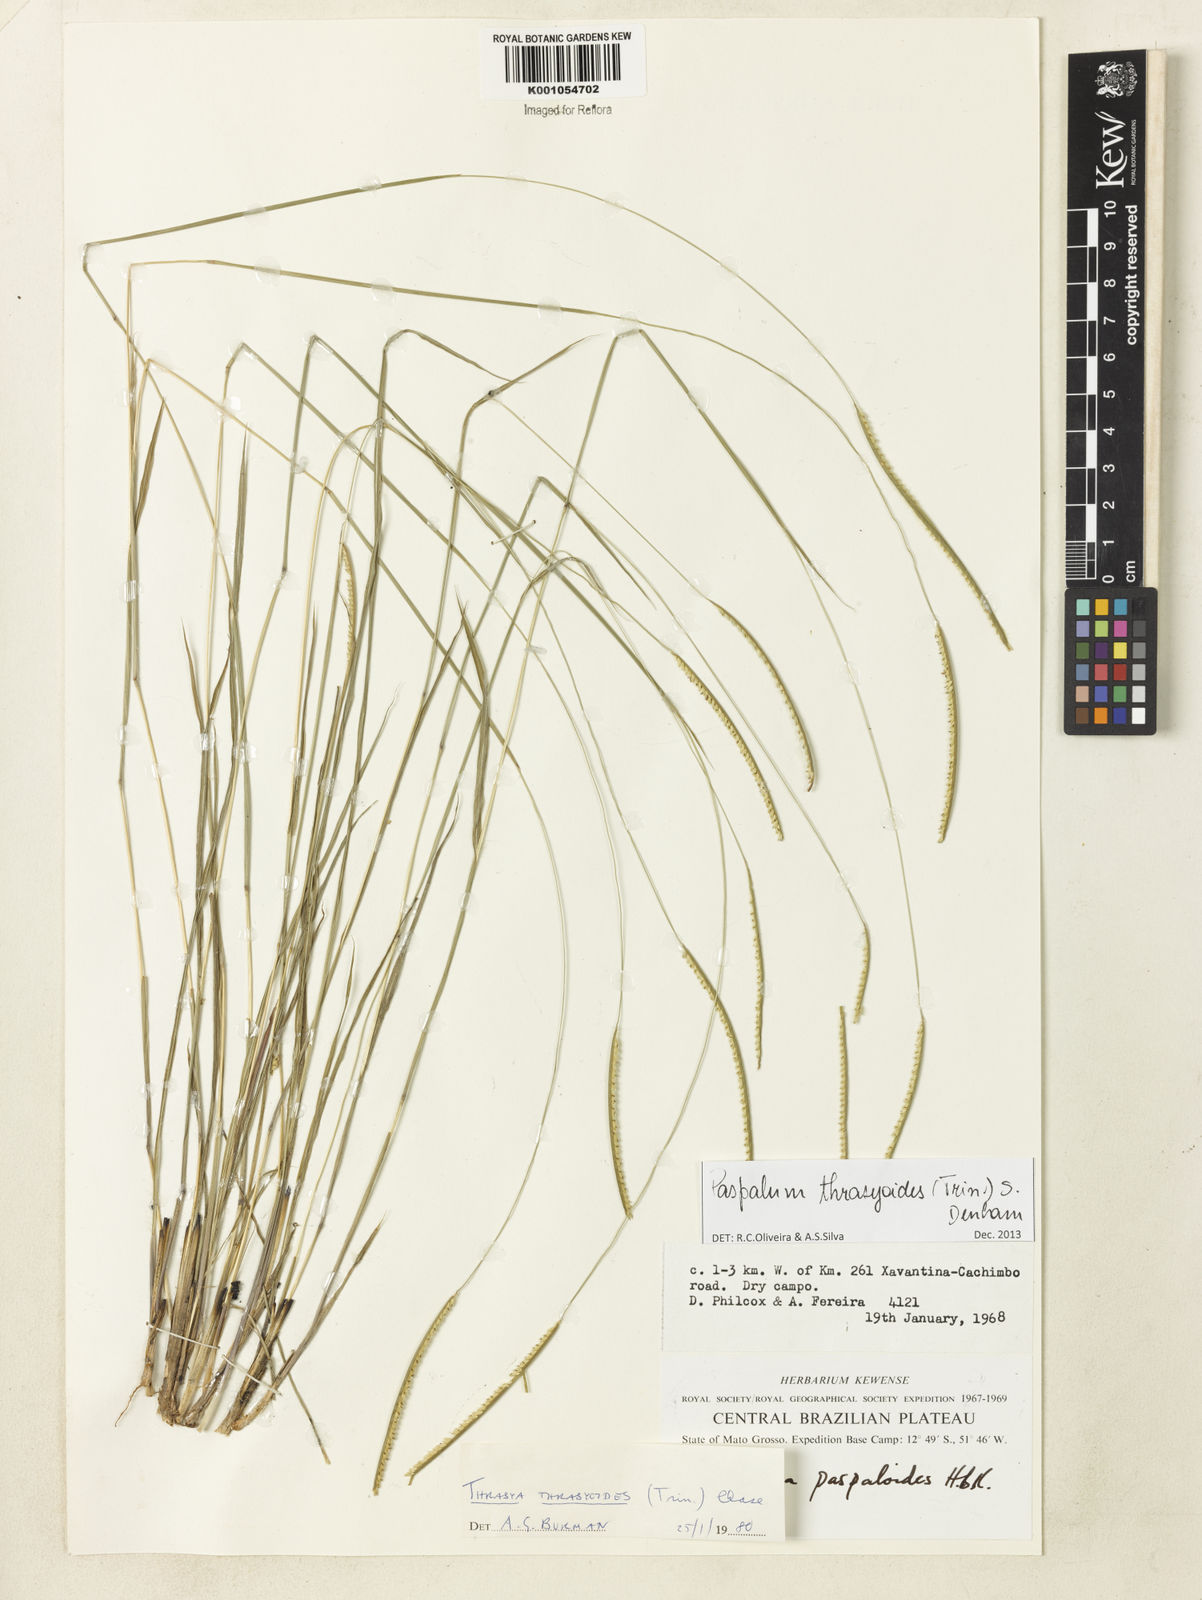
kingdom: Plantae
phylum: Tracheophyta
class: Liliopsida
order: Poales
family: Poaceae
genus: Paspalum
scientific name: Paspalum thrasyoides
